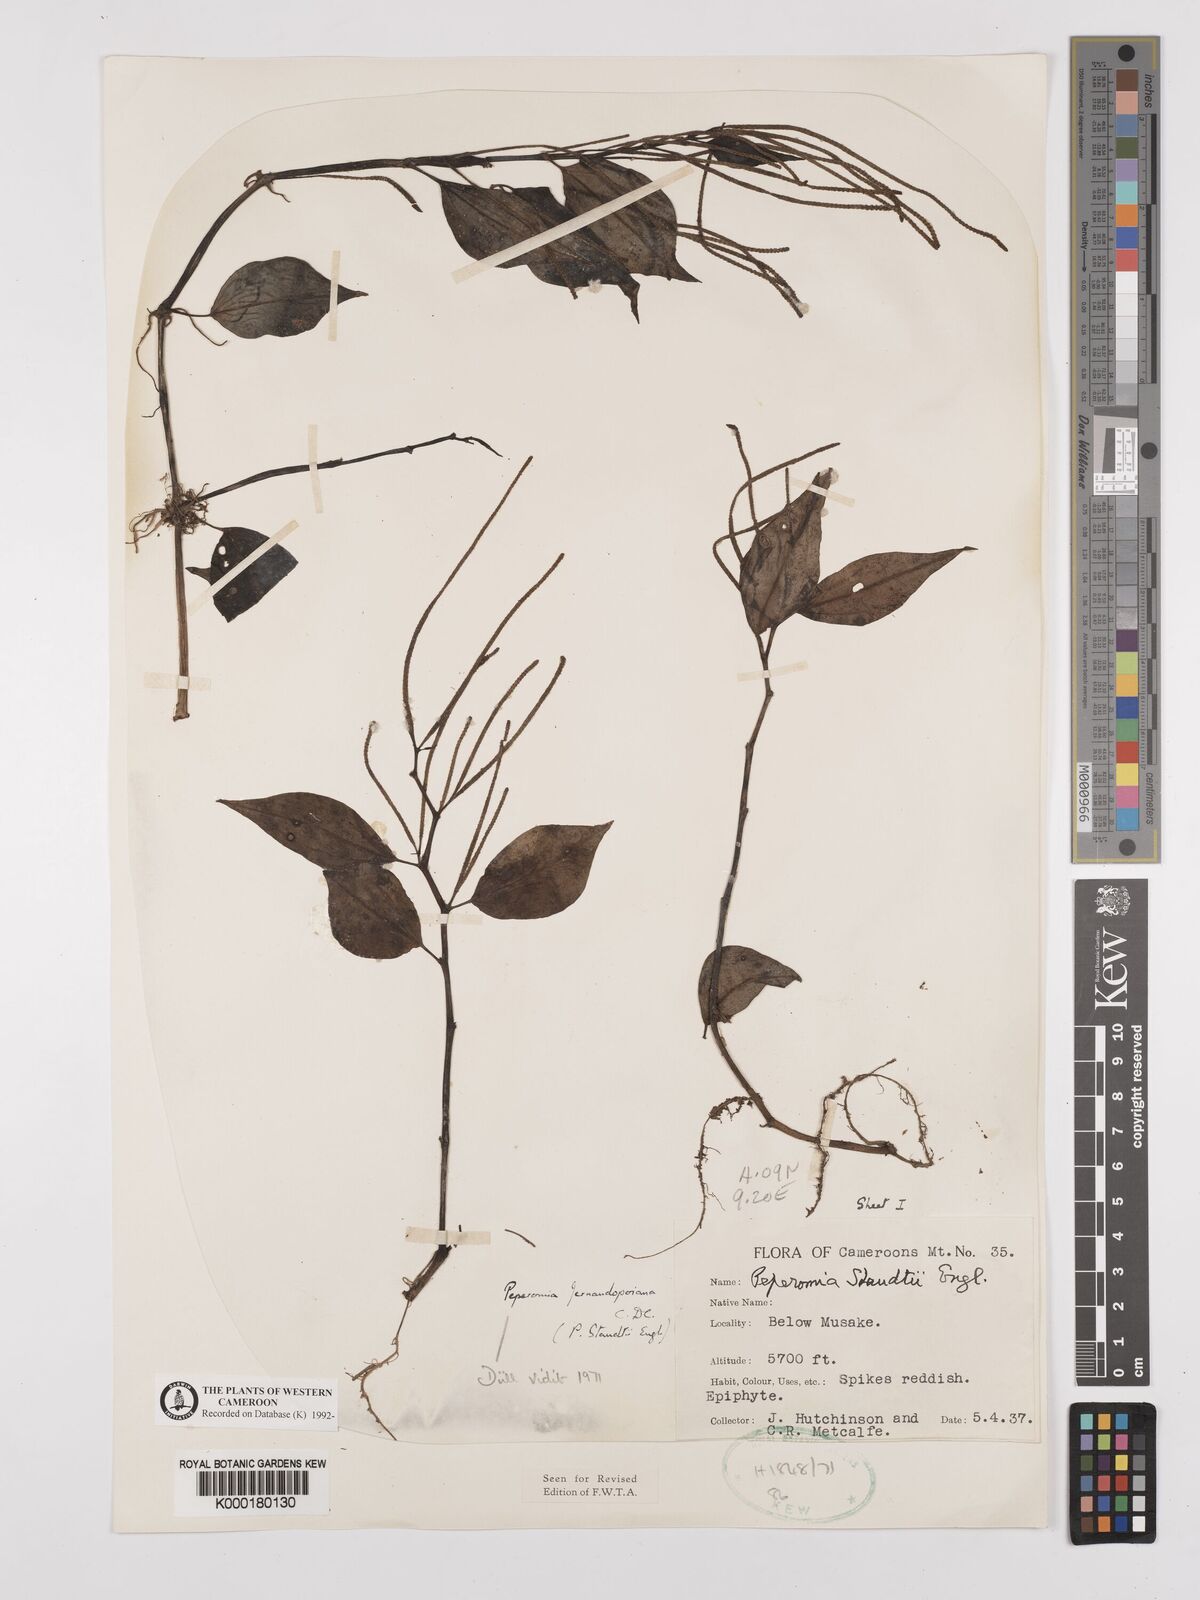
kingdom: Plantae
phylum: Tracheophyta
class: Magnoliopsida
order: Piperales
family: Piperaceae
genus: Peperomia
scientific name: Peperomia fernandopoiana
